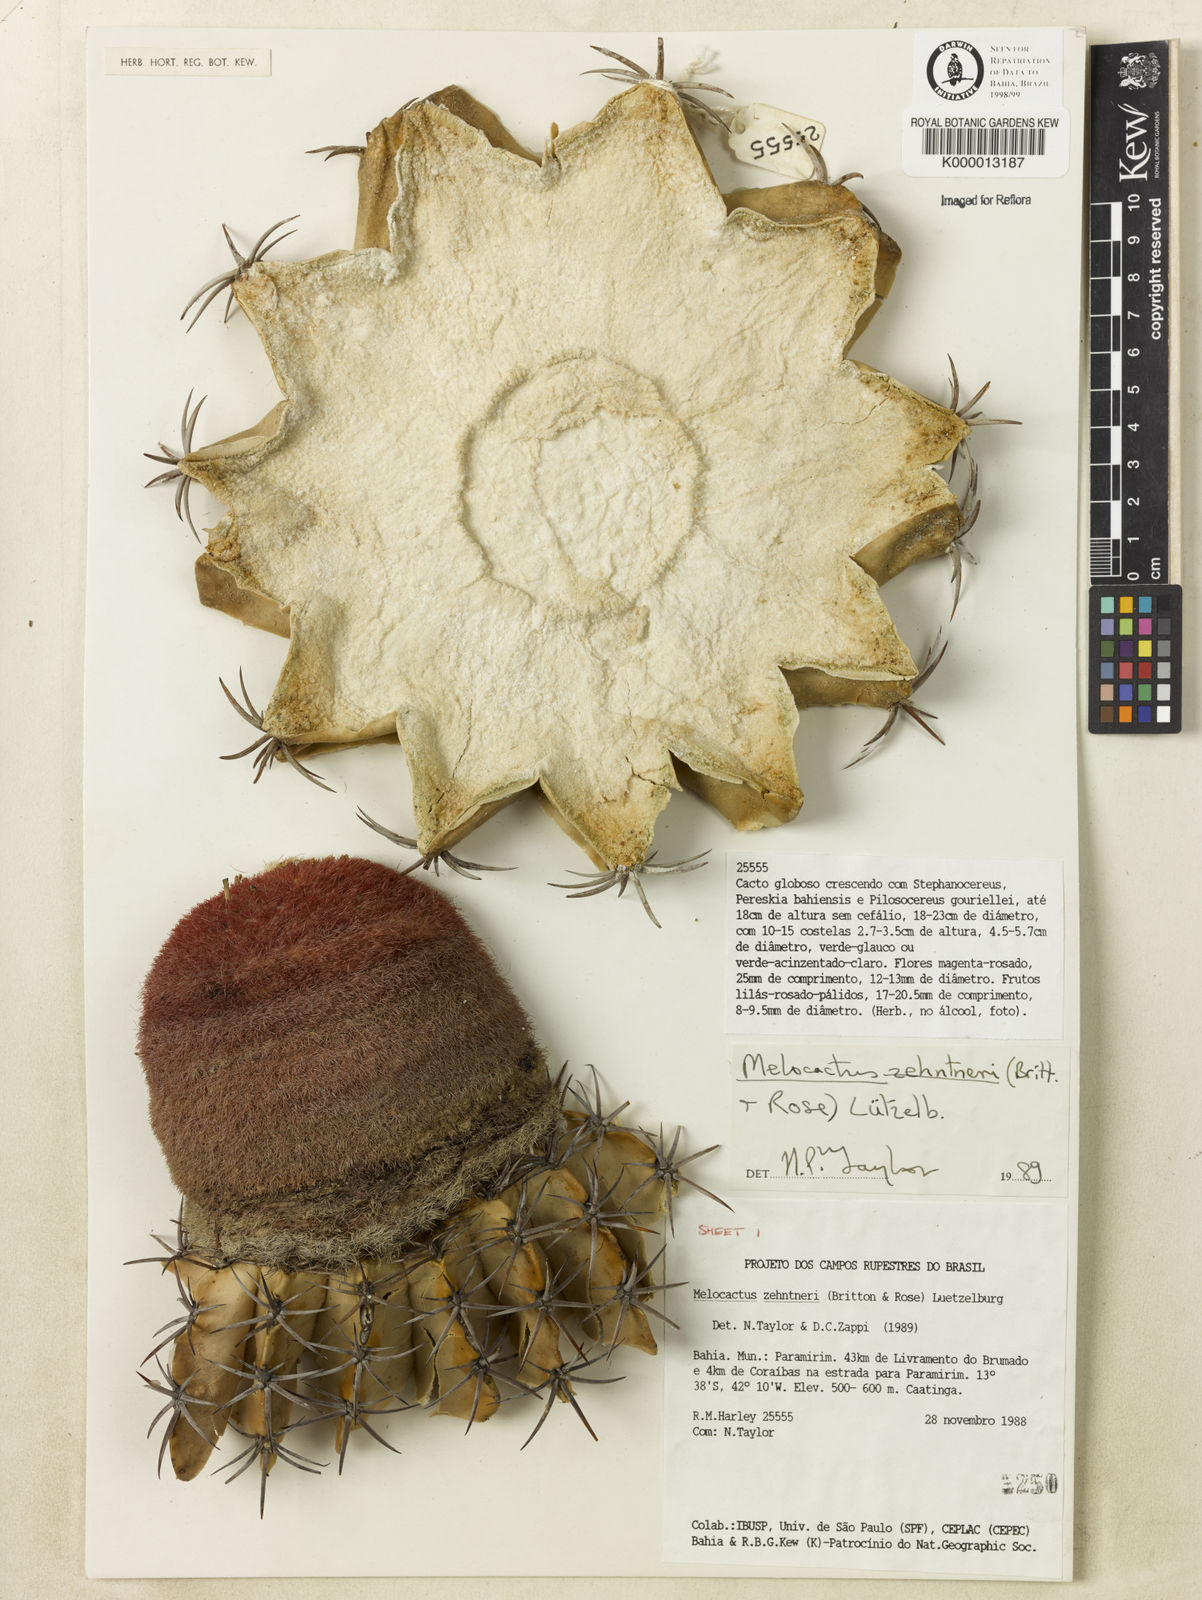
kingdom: Plantae
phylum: Tracheophyta
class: Magnoliopsida
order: Caryophyllales
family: Cactaceae
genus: Melocactus
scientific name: Melocactus zehntneri
